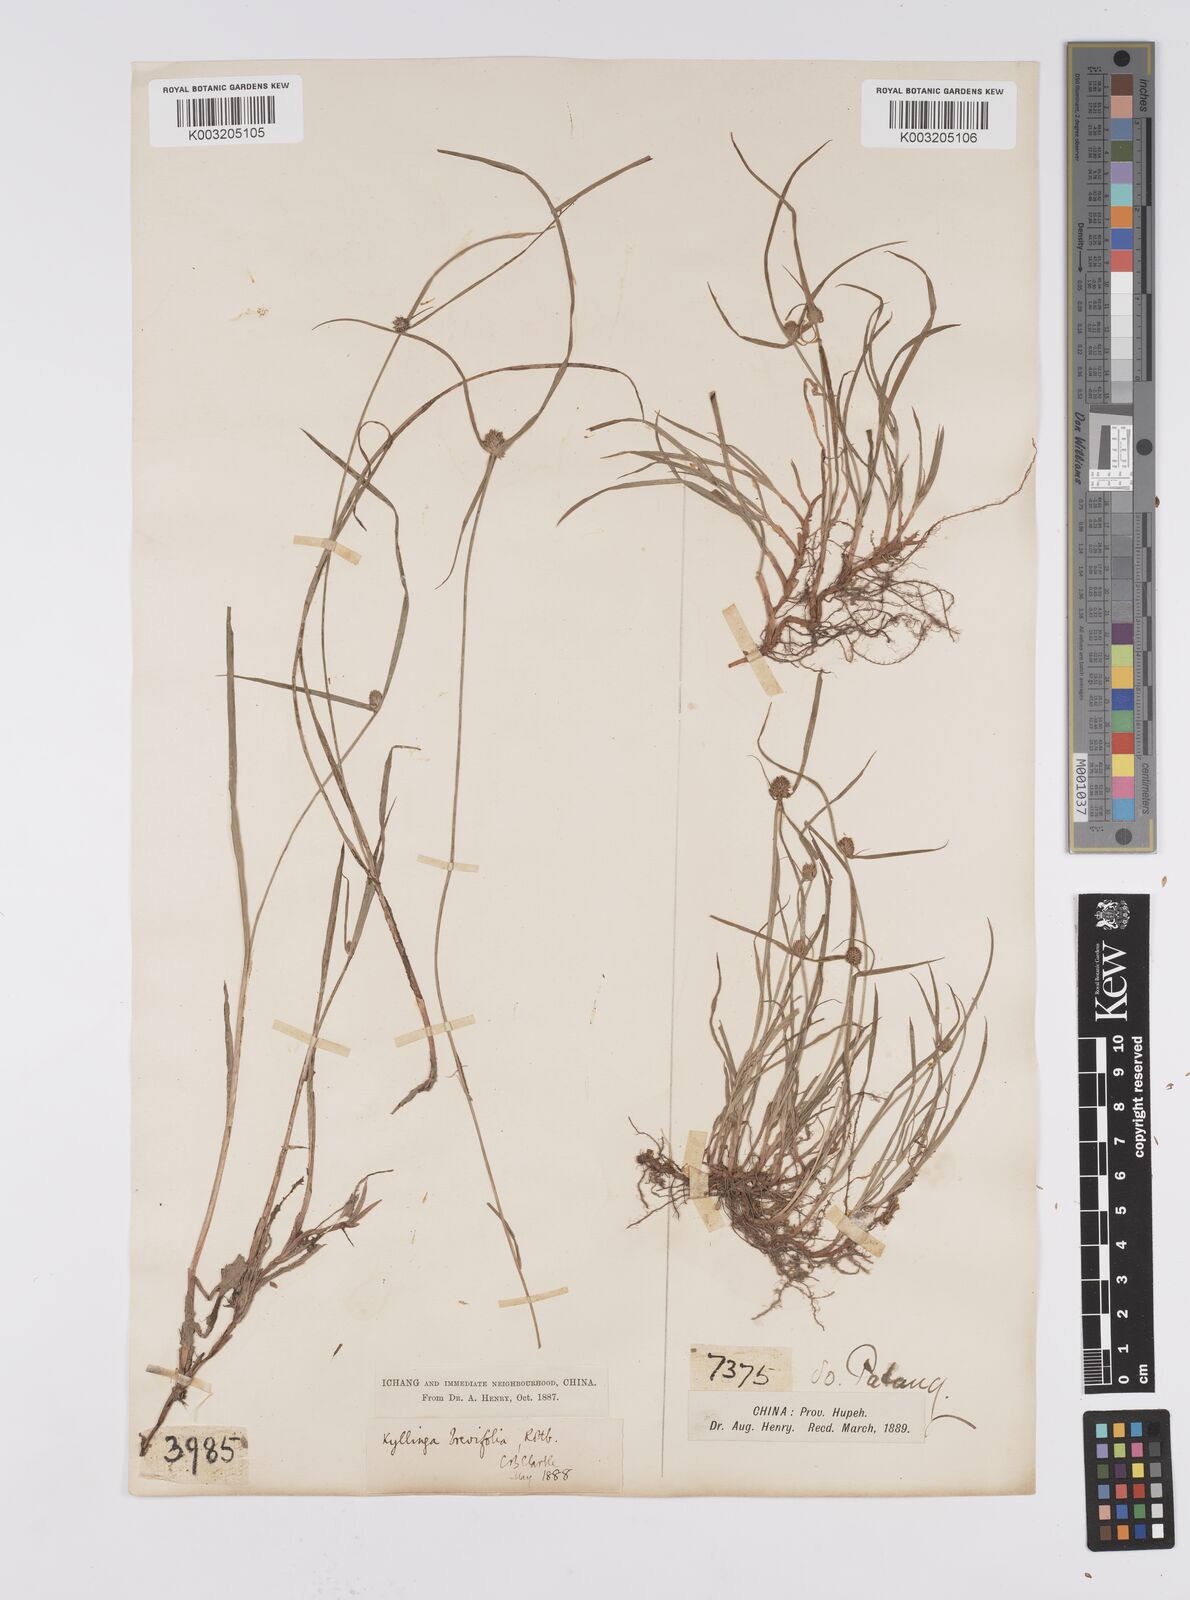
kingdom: Plantae
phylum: Tracheophyta
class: Liliopsida
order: Poales
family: Cyperaceae
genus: Cyperus
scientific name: Cyperus brevifolius
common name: Globe kyllinga
